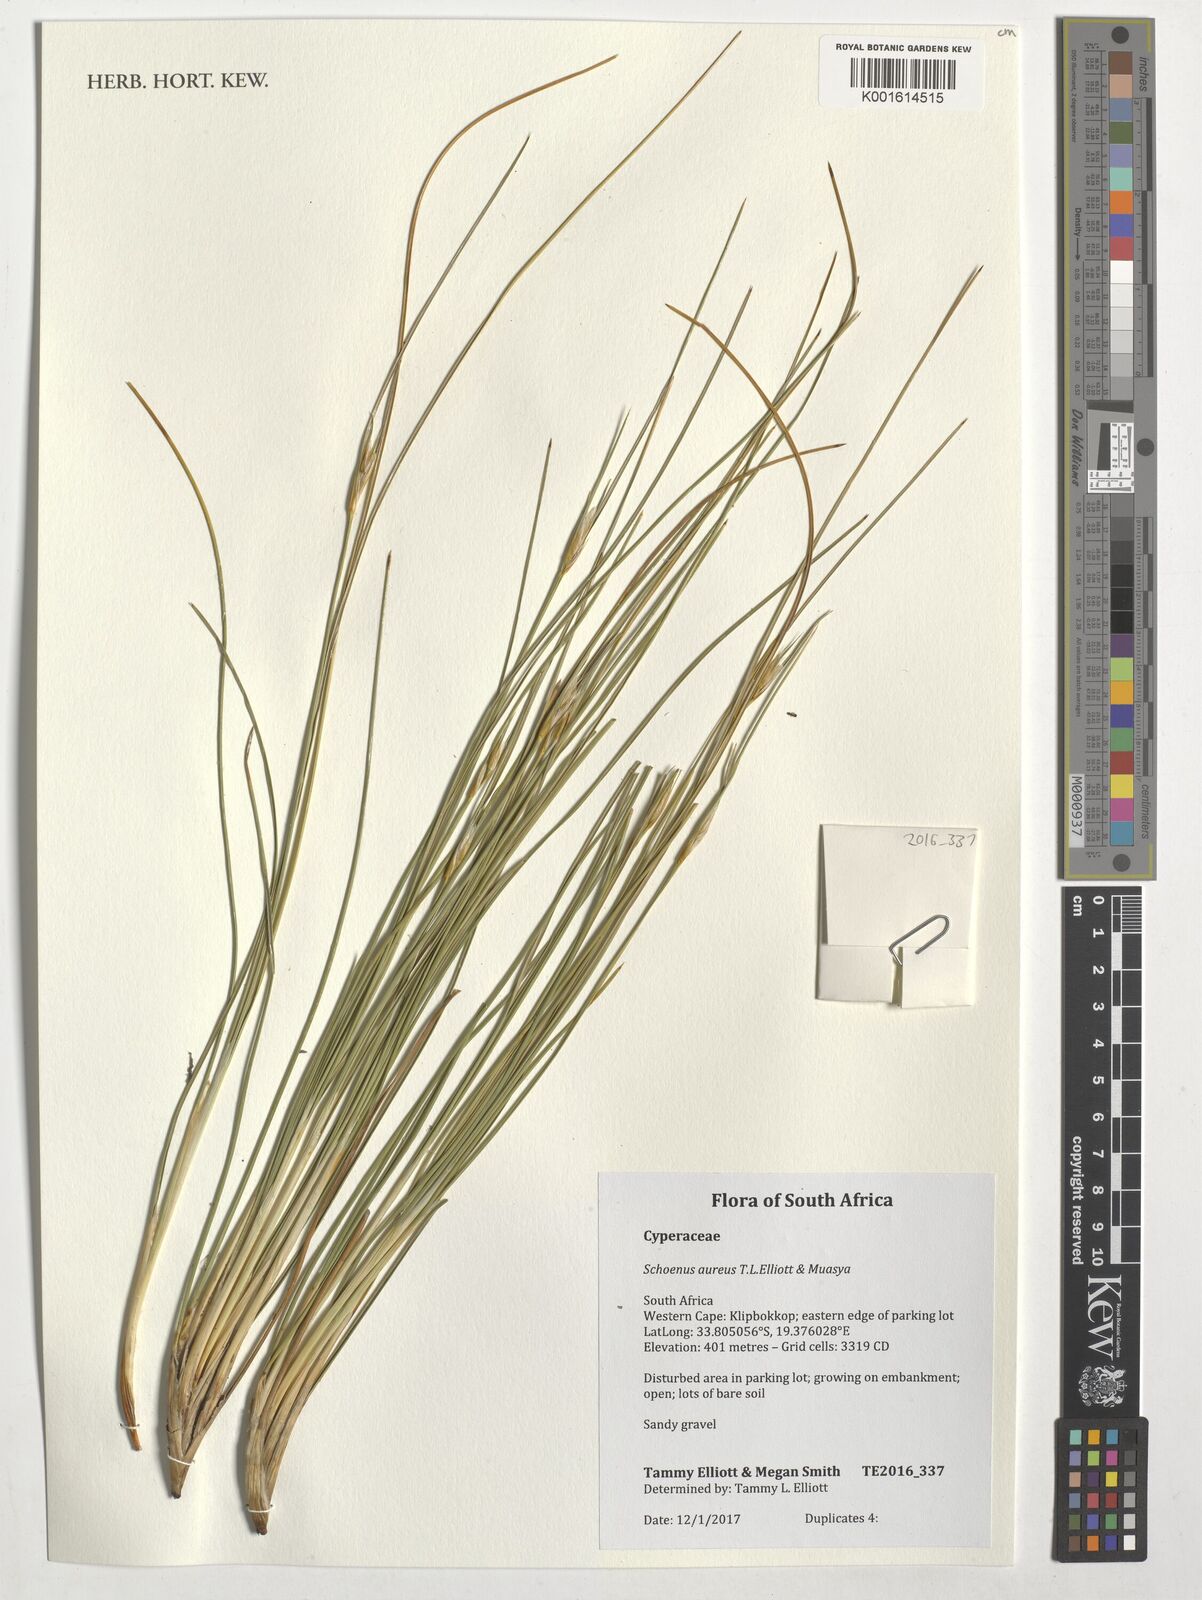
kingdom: Plantae
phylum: Tracheophyta
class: Liliopsida
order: Poales
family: Cyperaceae
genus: Schoenus
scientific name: Schoenus aureus
